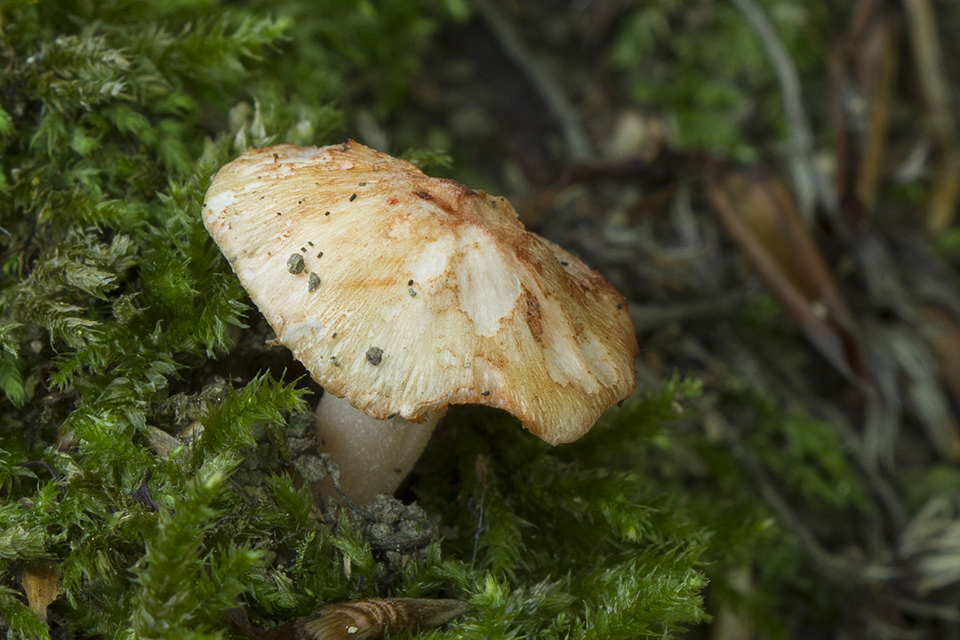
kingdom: Fungi
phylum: Basidiomycota
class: Agaricomycetes
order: Agaricales
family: Inocybaceae
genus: Inocybe
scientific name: Inocybe godeyi
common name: orangerødmende trævlhat
